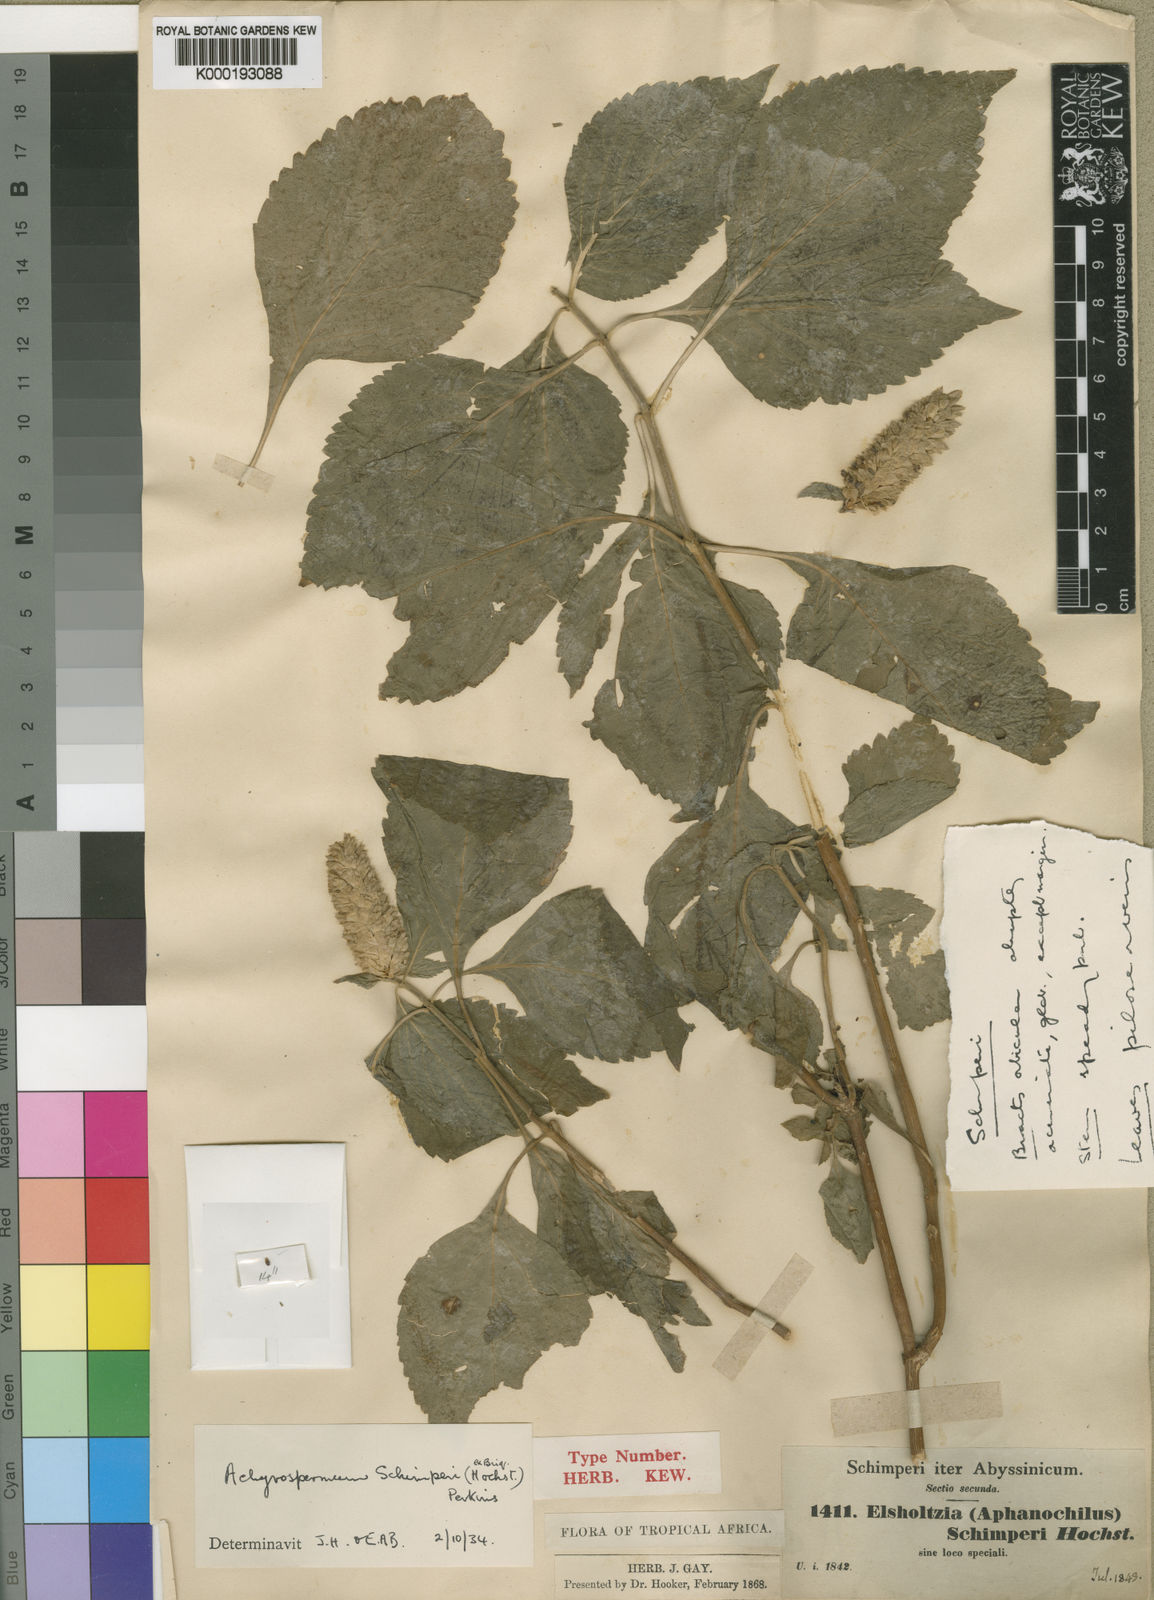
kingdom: Plantae
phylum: Tracheophyta
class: Magnoliopsida
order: Lamiales
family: Lamiaceae
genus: Achyrospermum
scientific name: Achyrospermum
